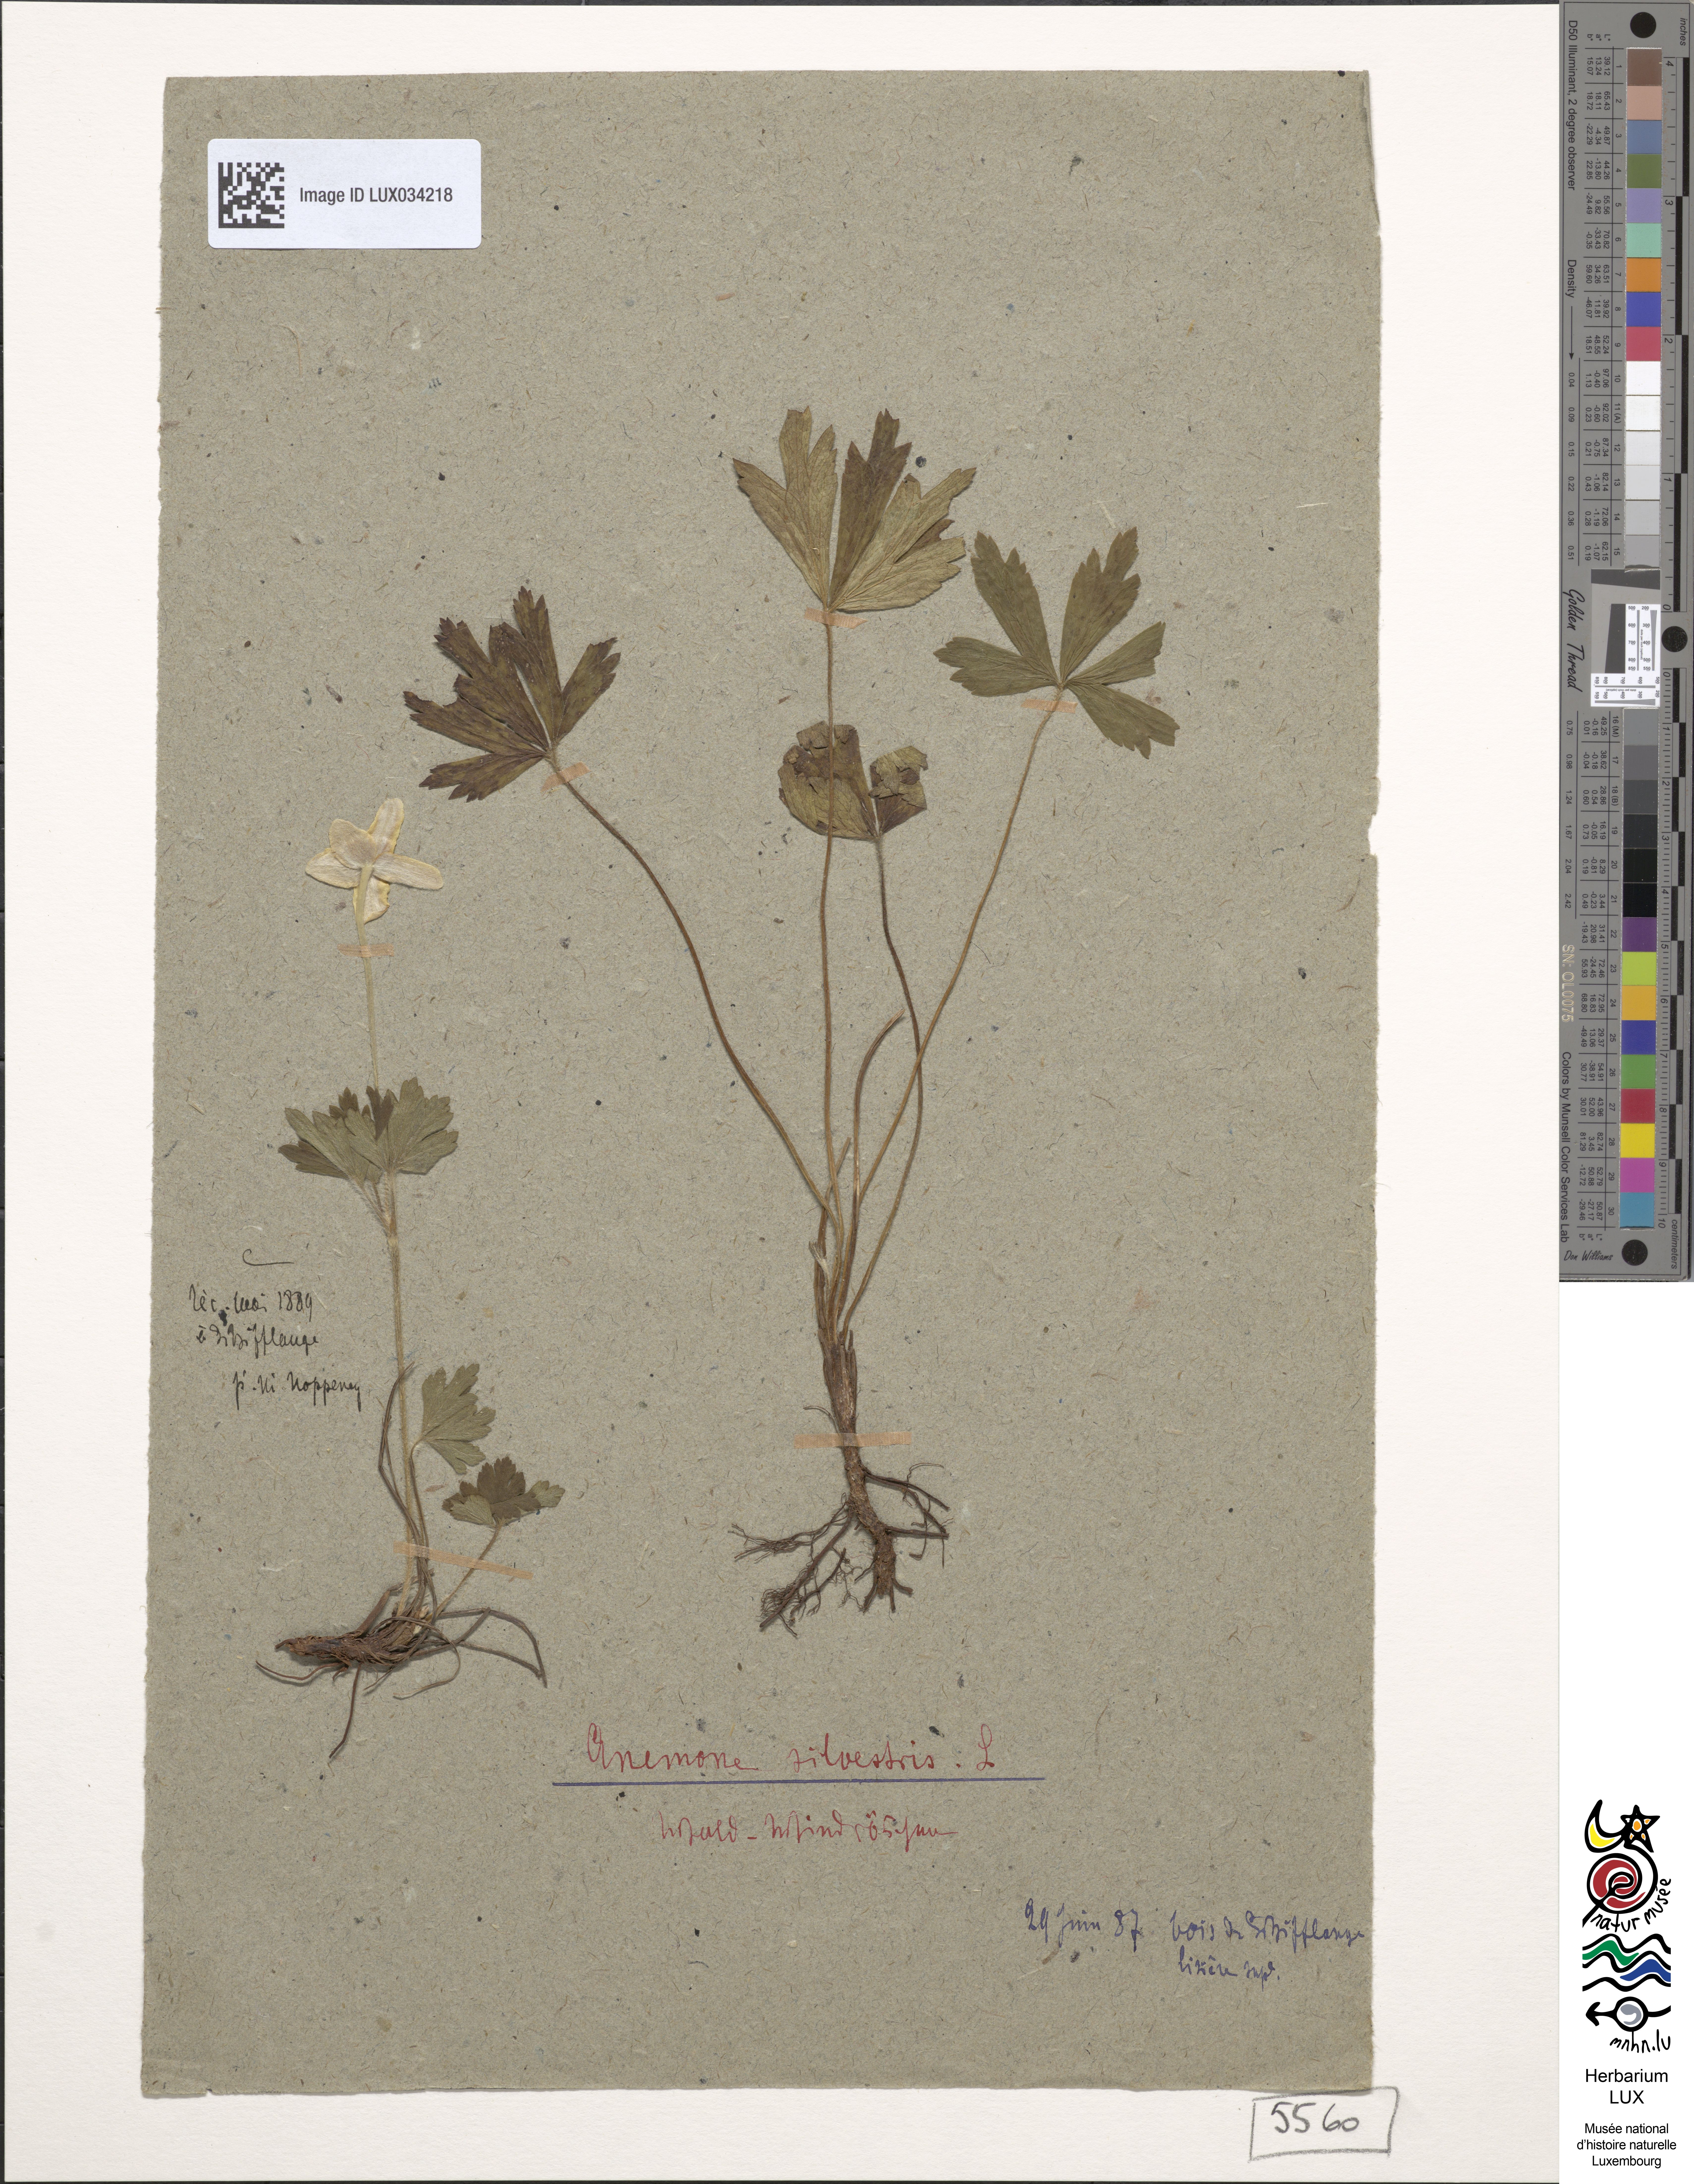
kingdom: Plantae
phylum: Tracheophyta
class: Magnoliopsida
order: Ranunculales
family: Ranunculaceae
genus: Anemone
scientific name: Anemone sylvestris
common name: Snowdrop anemone
